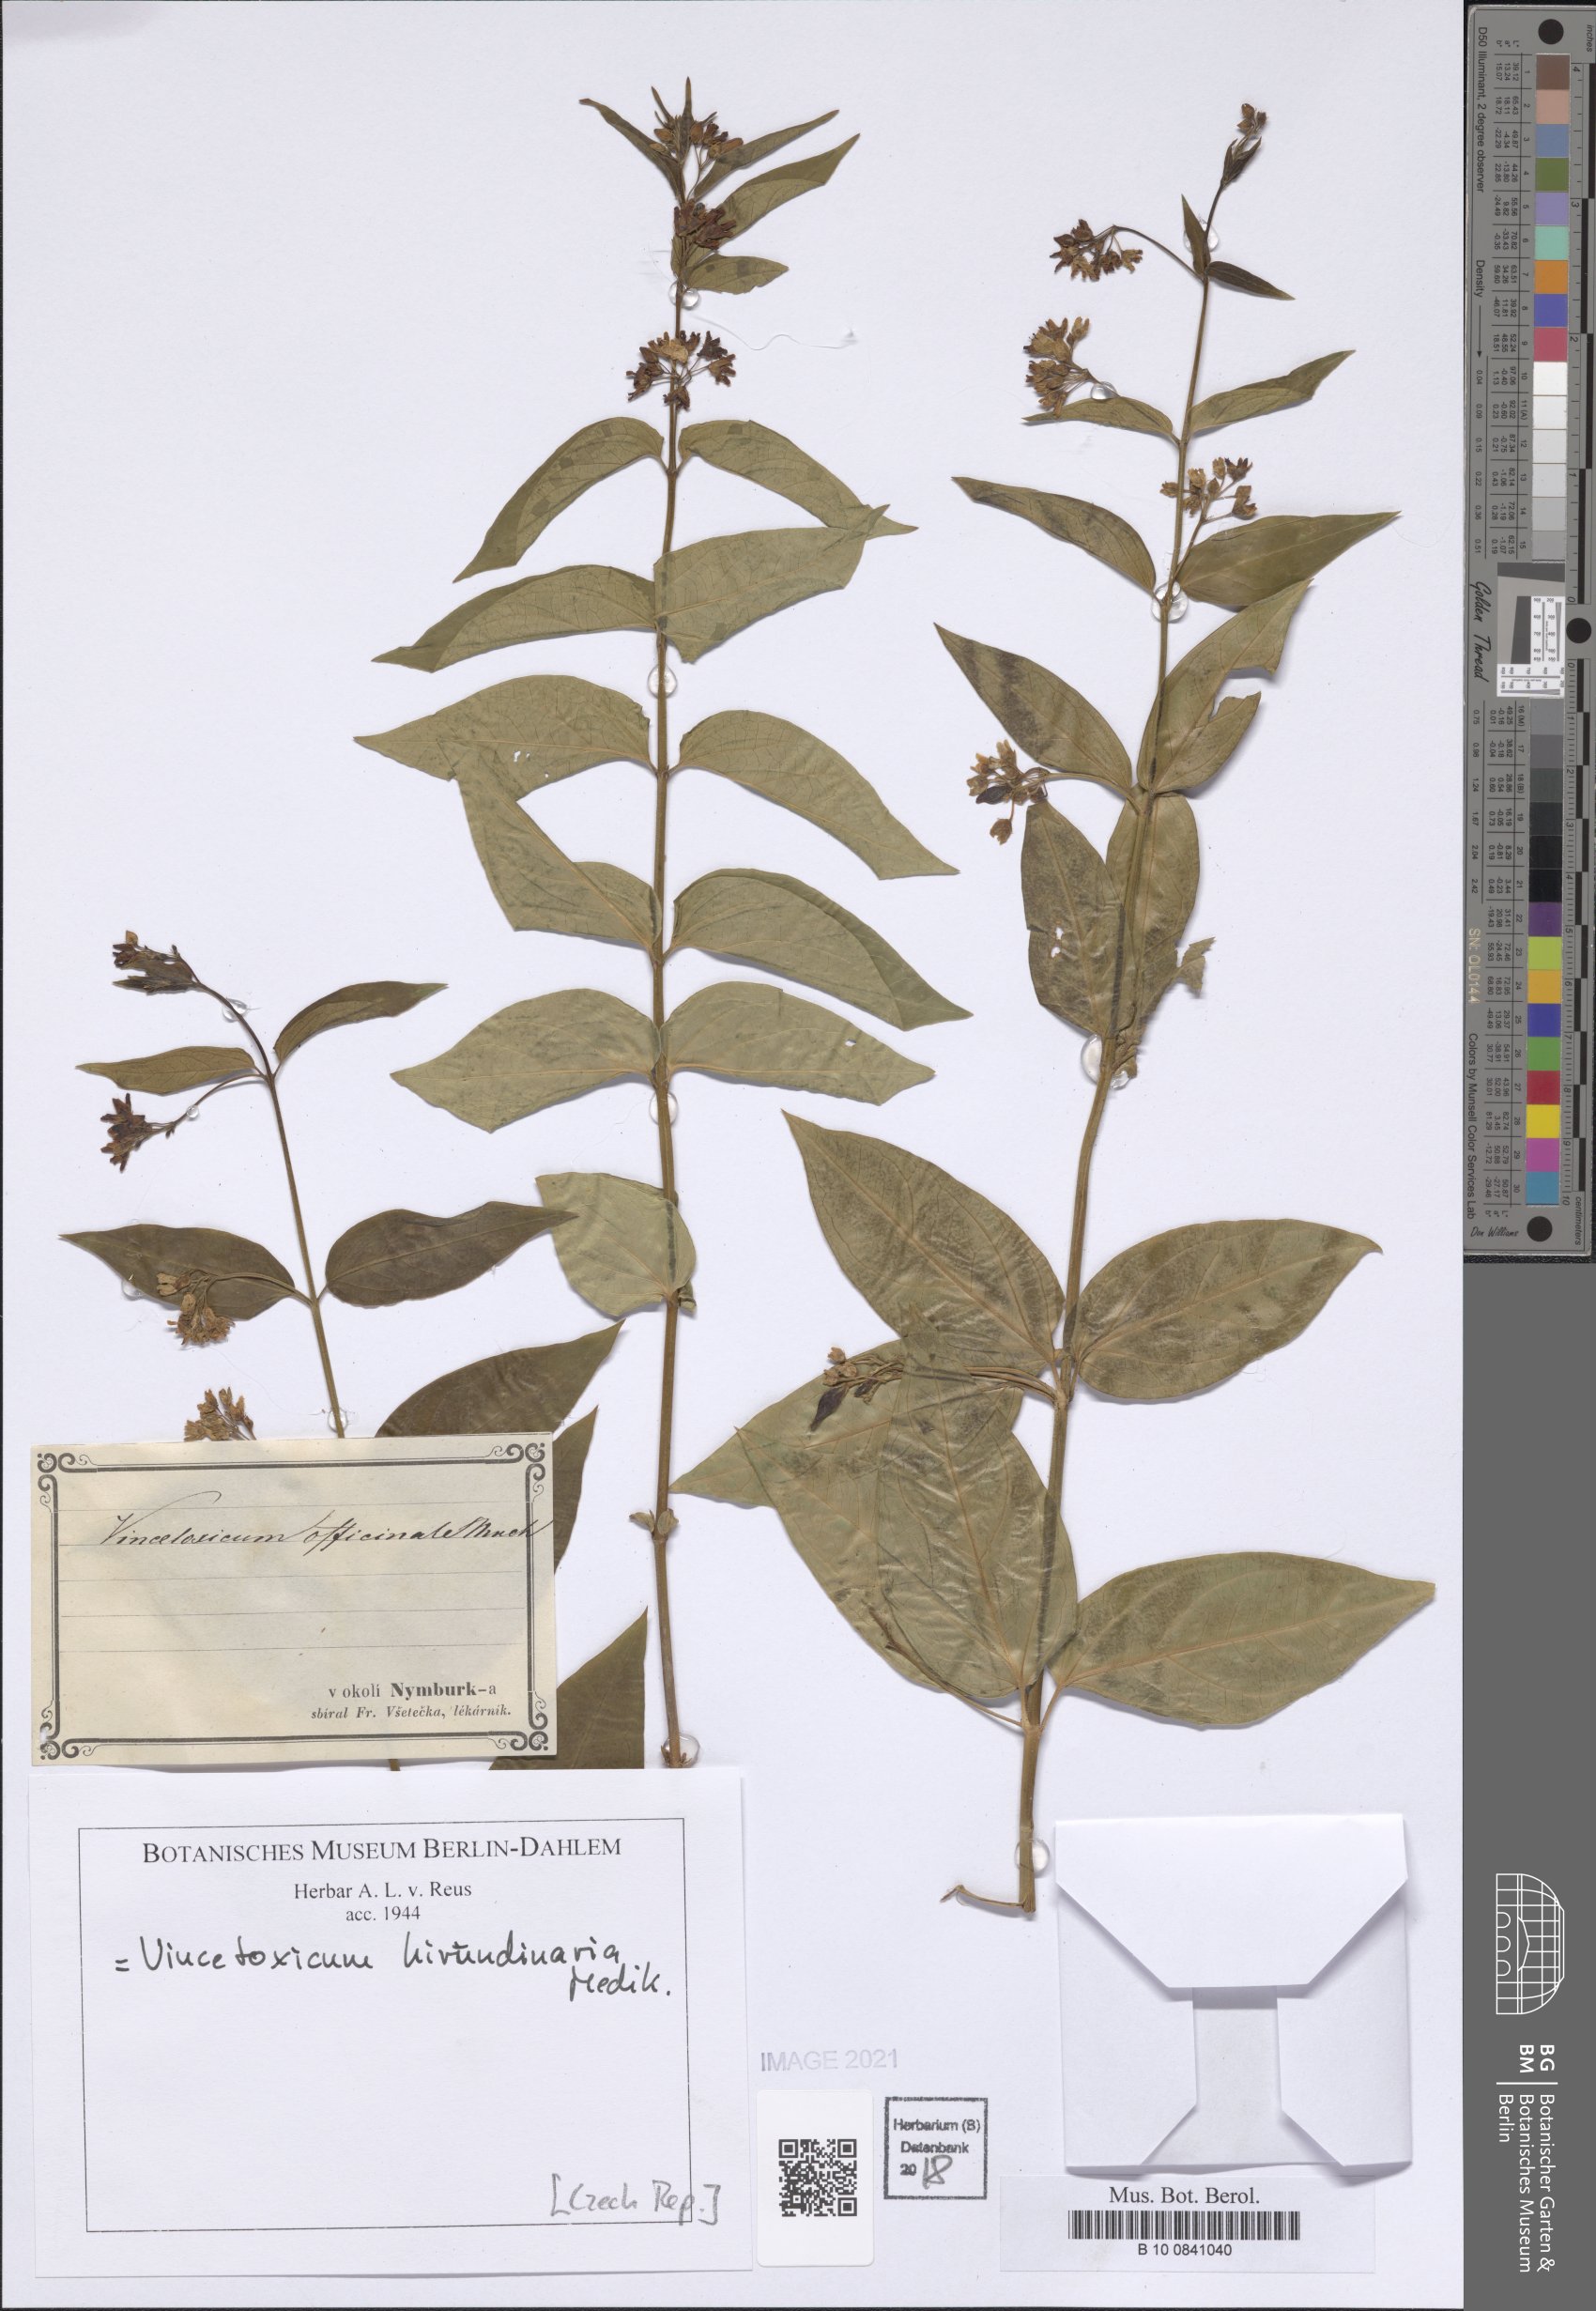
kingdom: Plantae
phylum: Tracheophyta
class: Magnoliopsida
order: Gentianales
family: Apocynaceae
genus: Vincetoxicum
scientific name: Vincetoxicum hirundinaria
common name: White swallowwort
